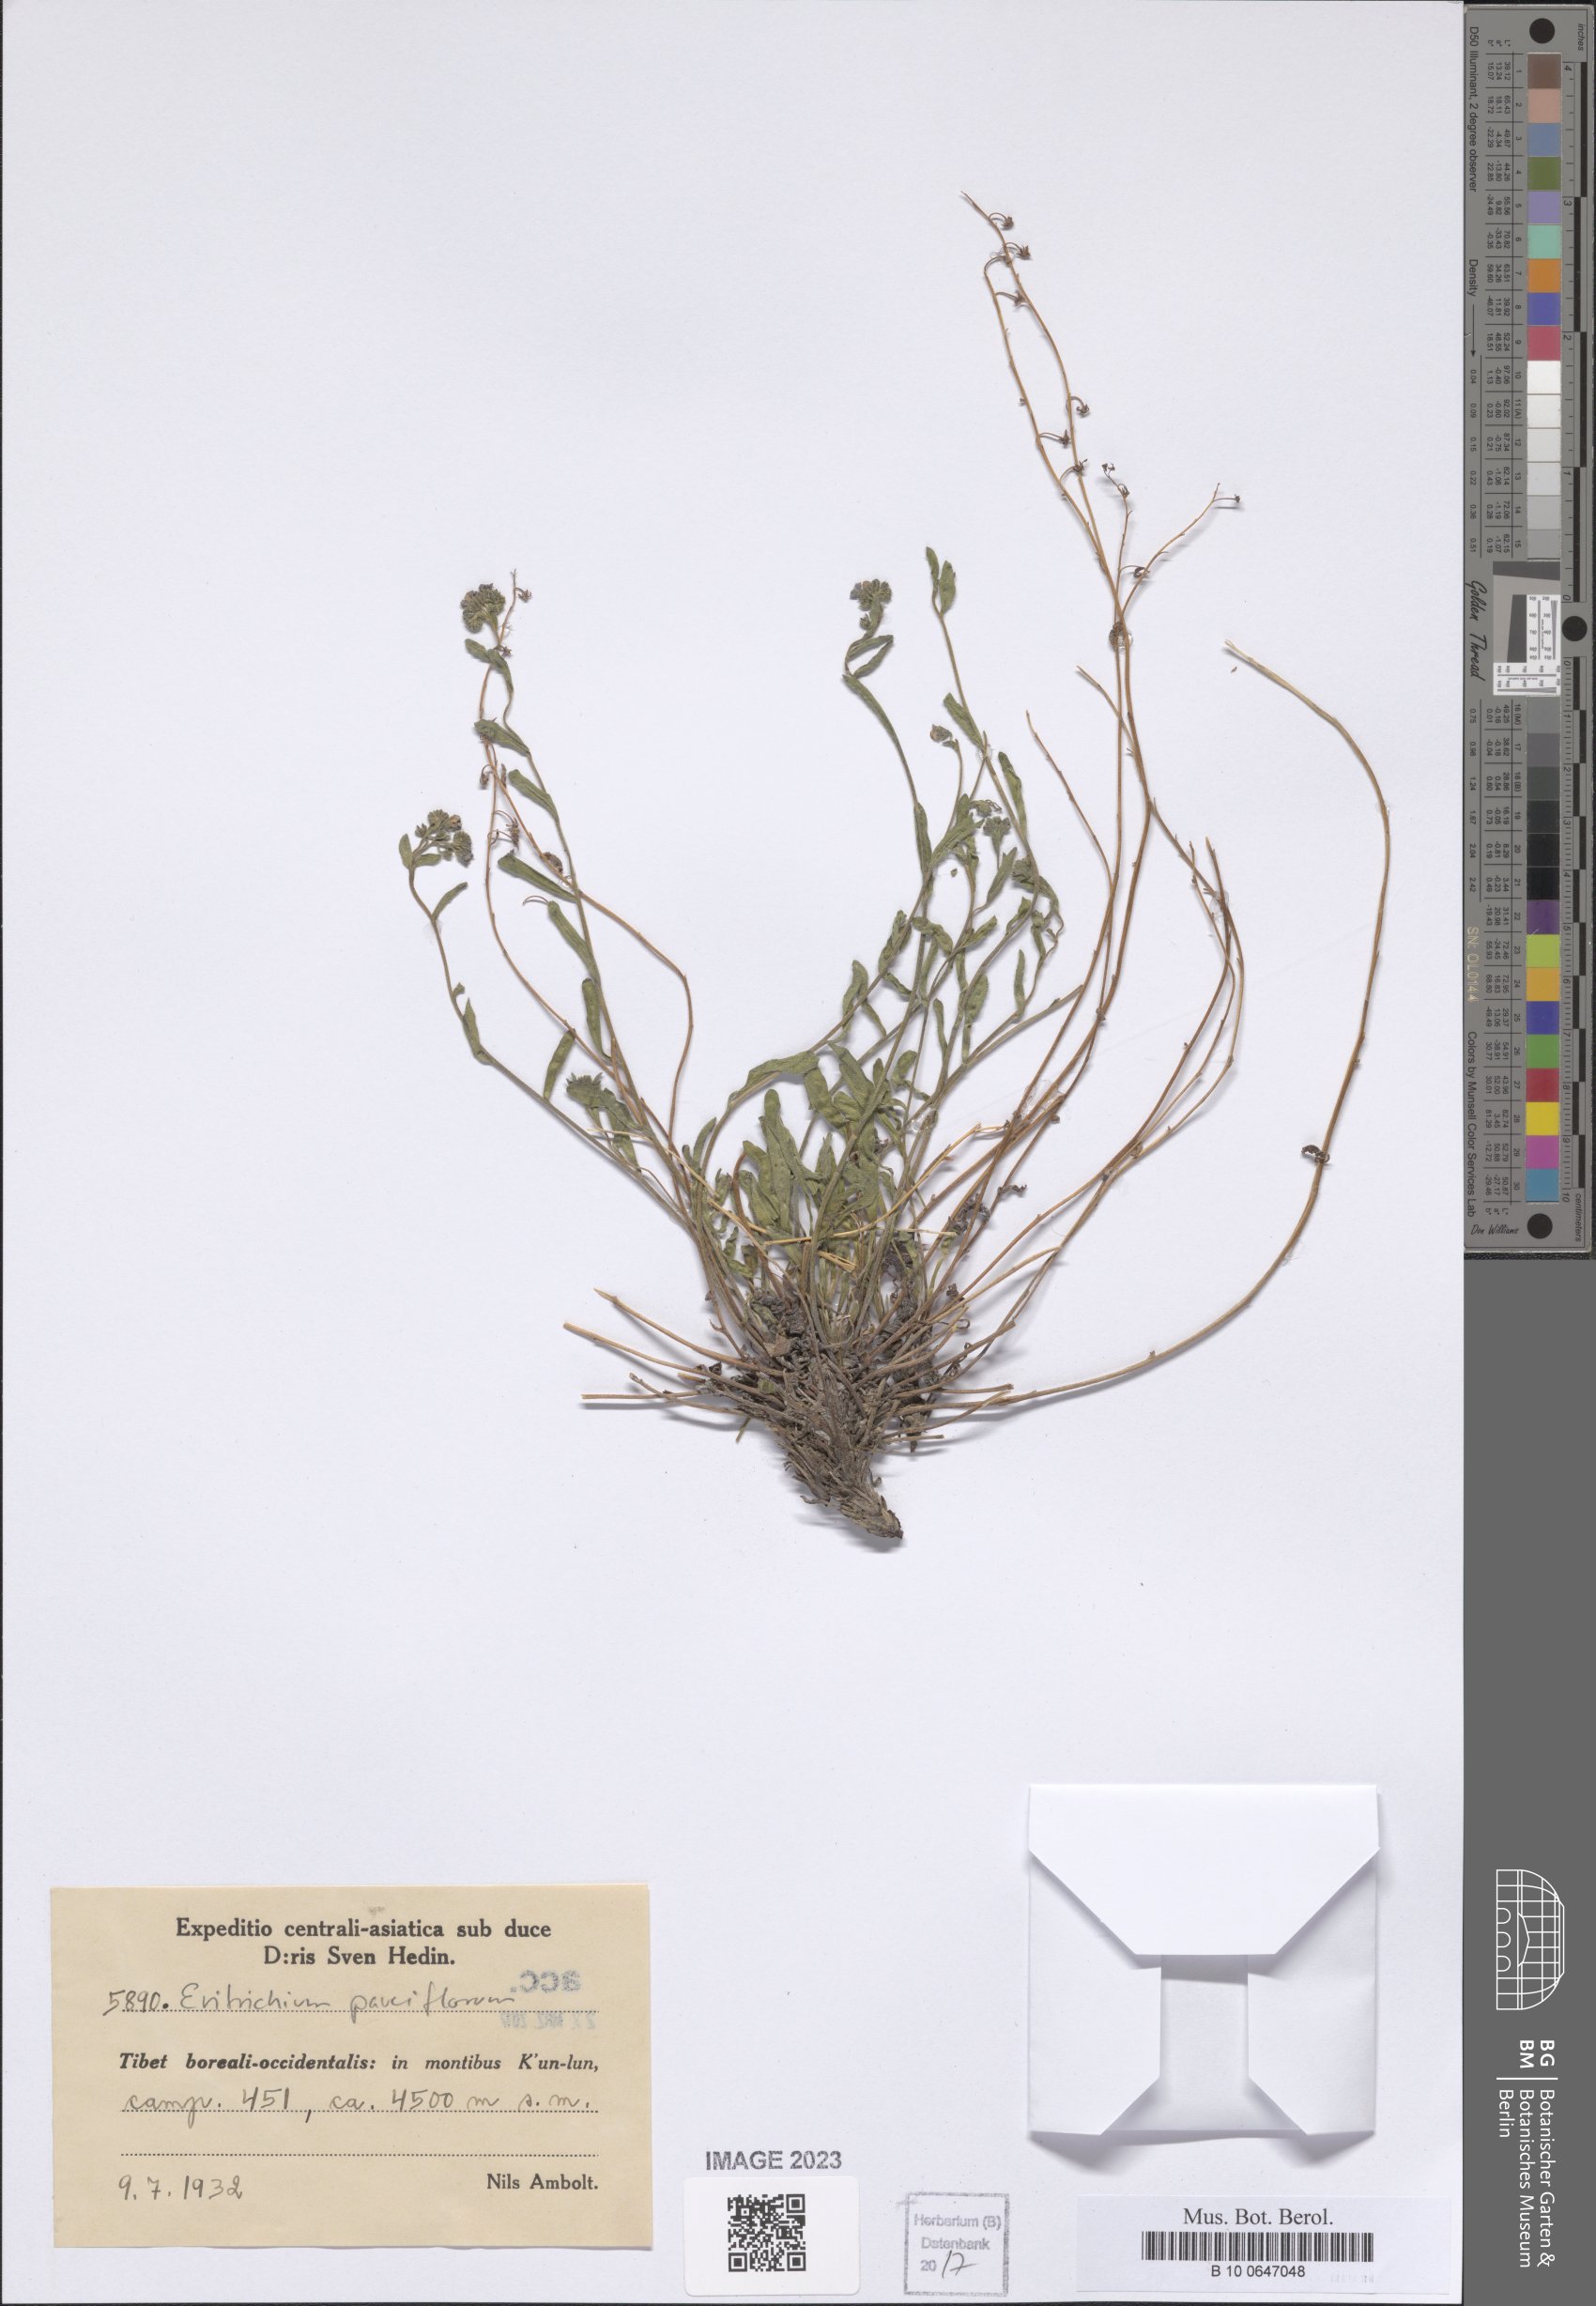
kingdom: Plantae
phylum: Tracheophyta
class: Magnoliopsida
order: Boraginales
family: Boraginaceae
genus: Eritrichium
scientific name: Eritrichium pauciflorum
